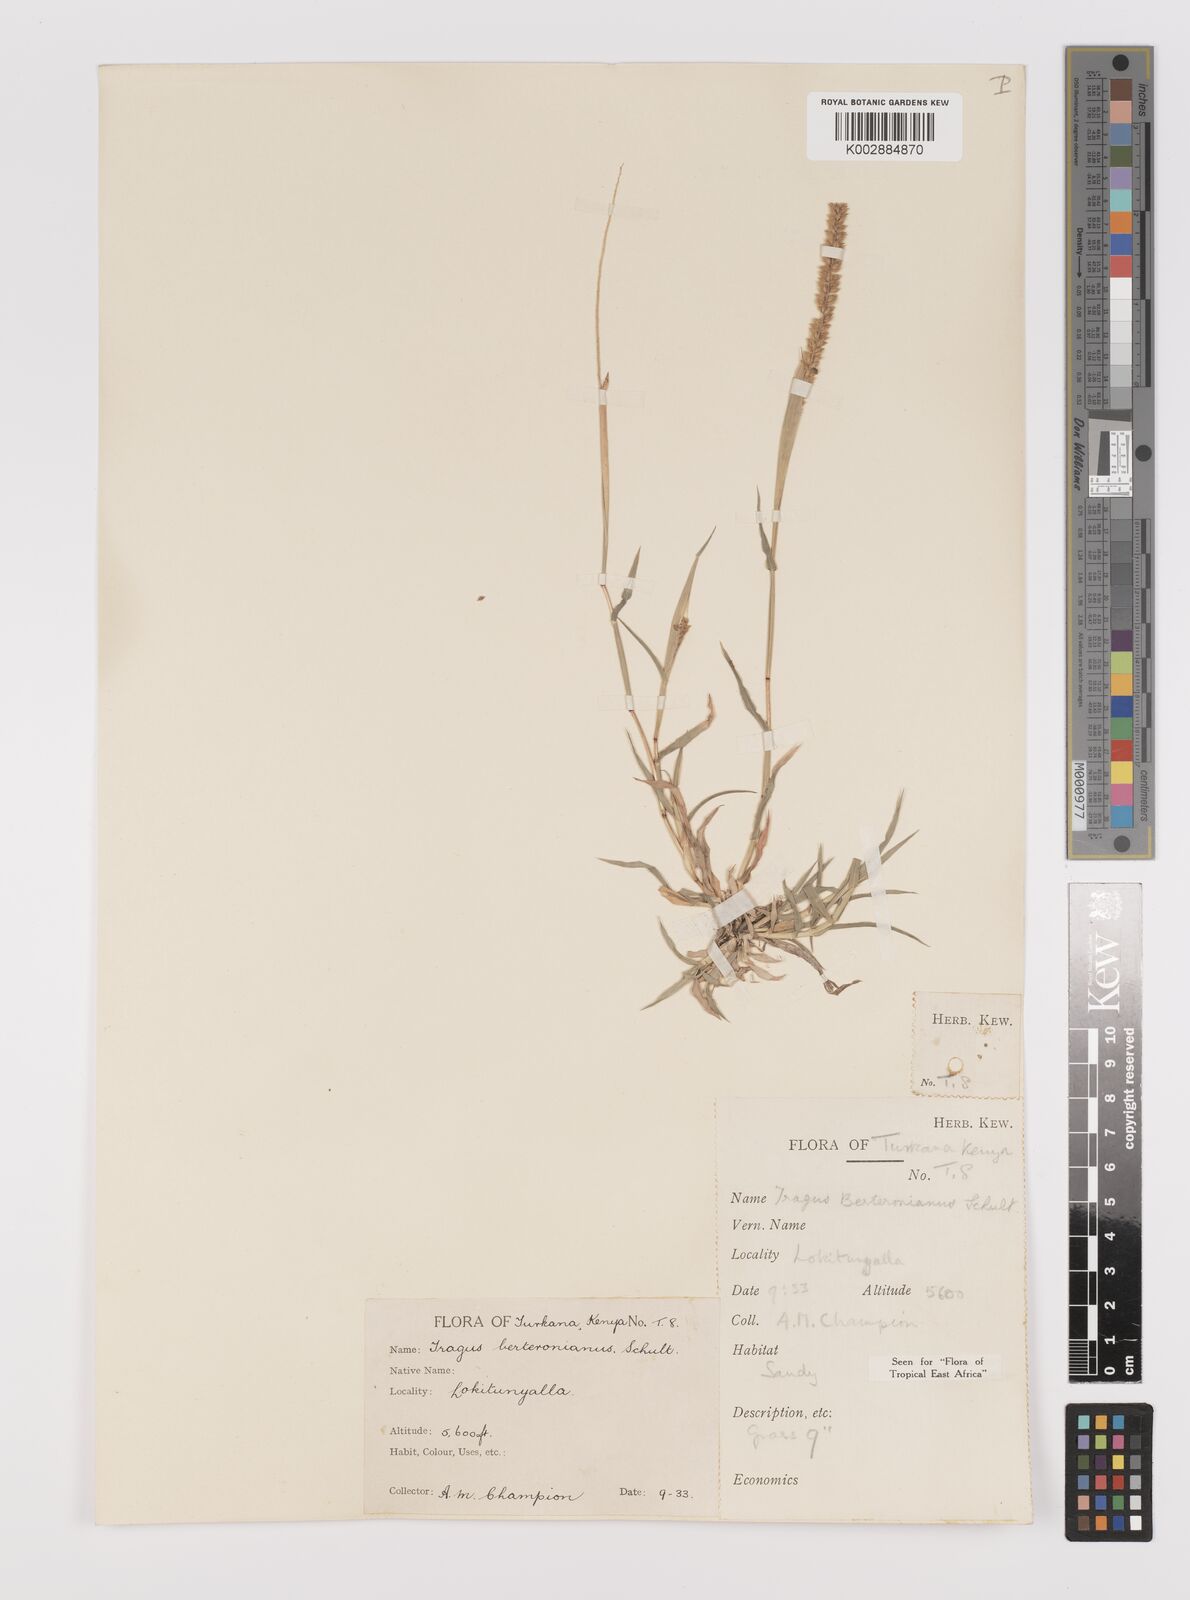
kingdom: Plantae
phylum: Tracheophyta
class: Liliopsida
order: Poales
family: Poaceae
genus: Tragus
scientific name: Tragus berteronianus
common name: African bur-grass
